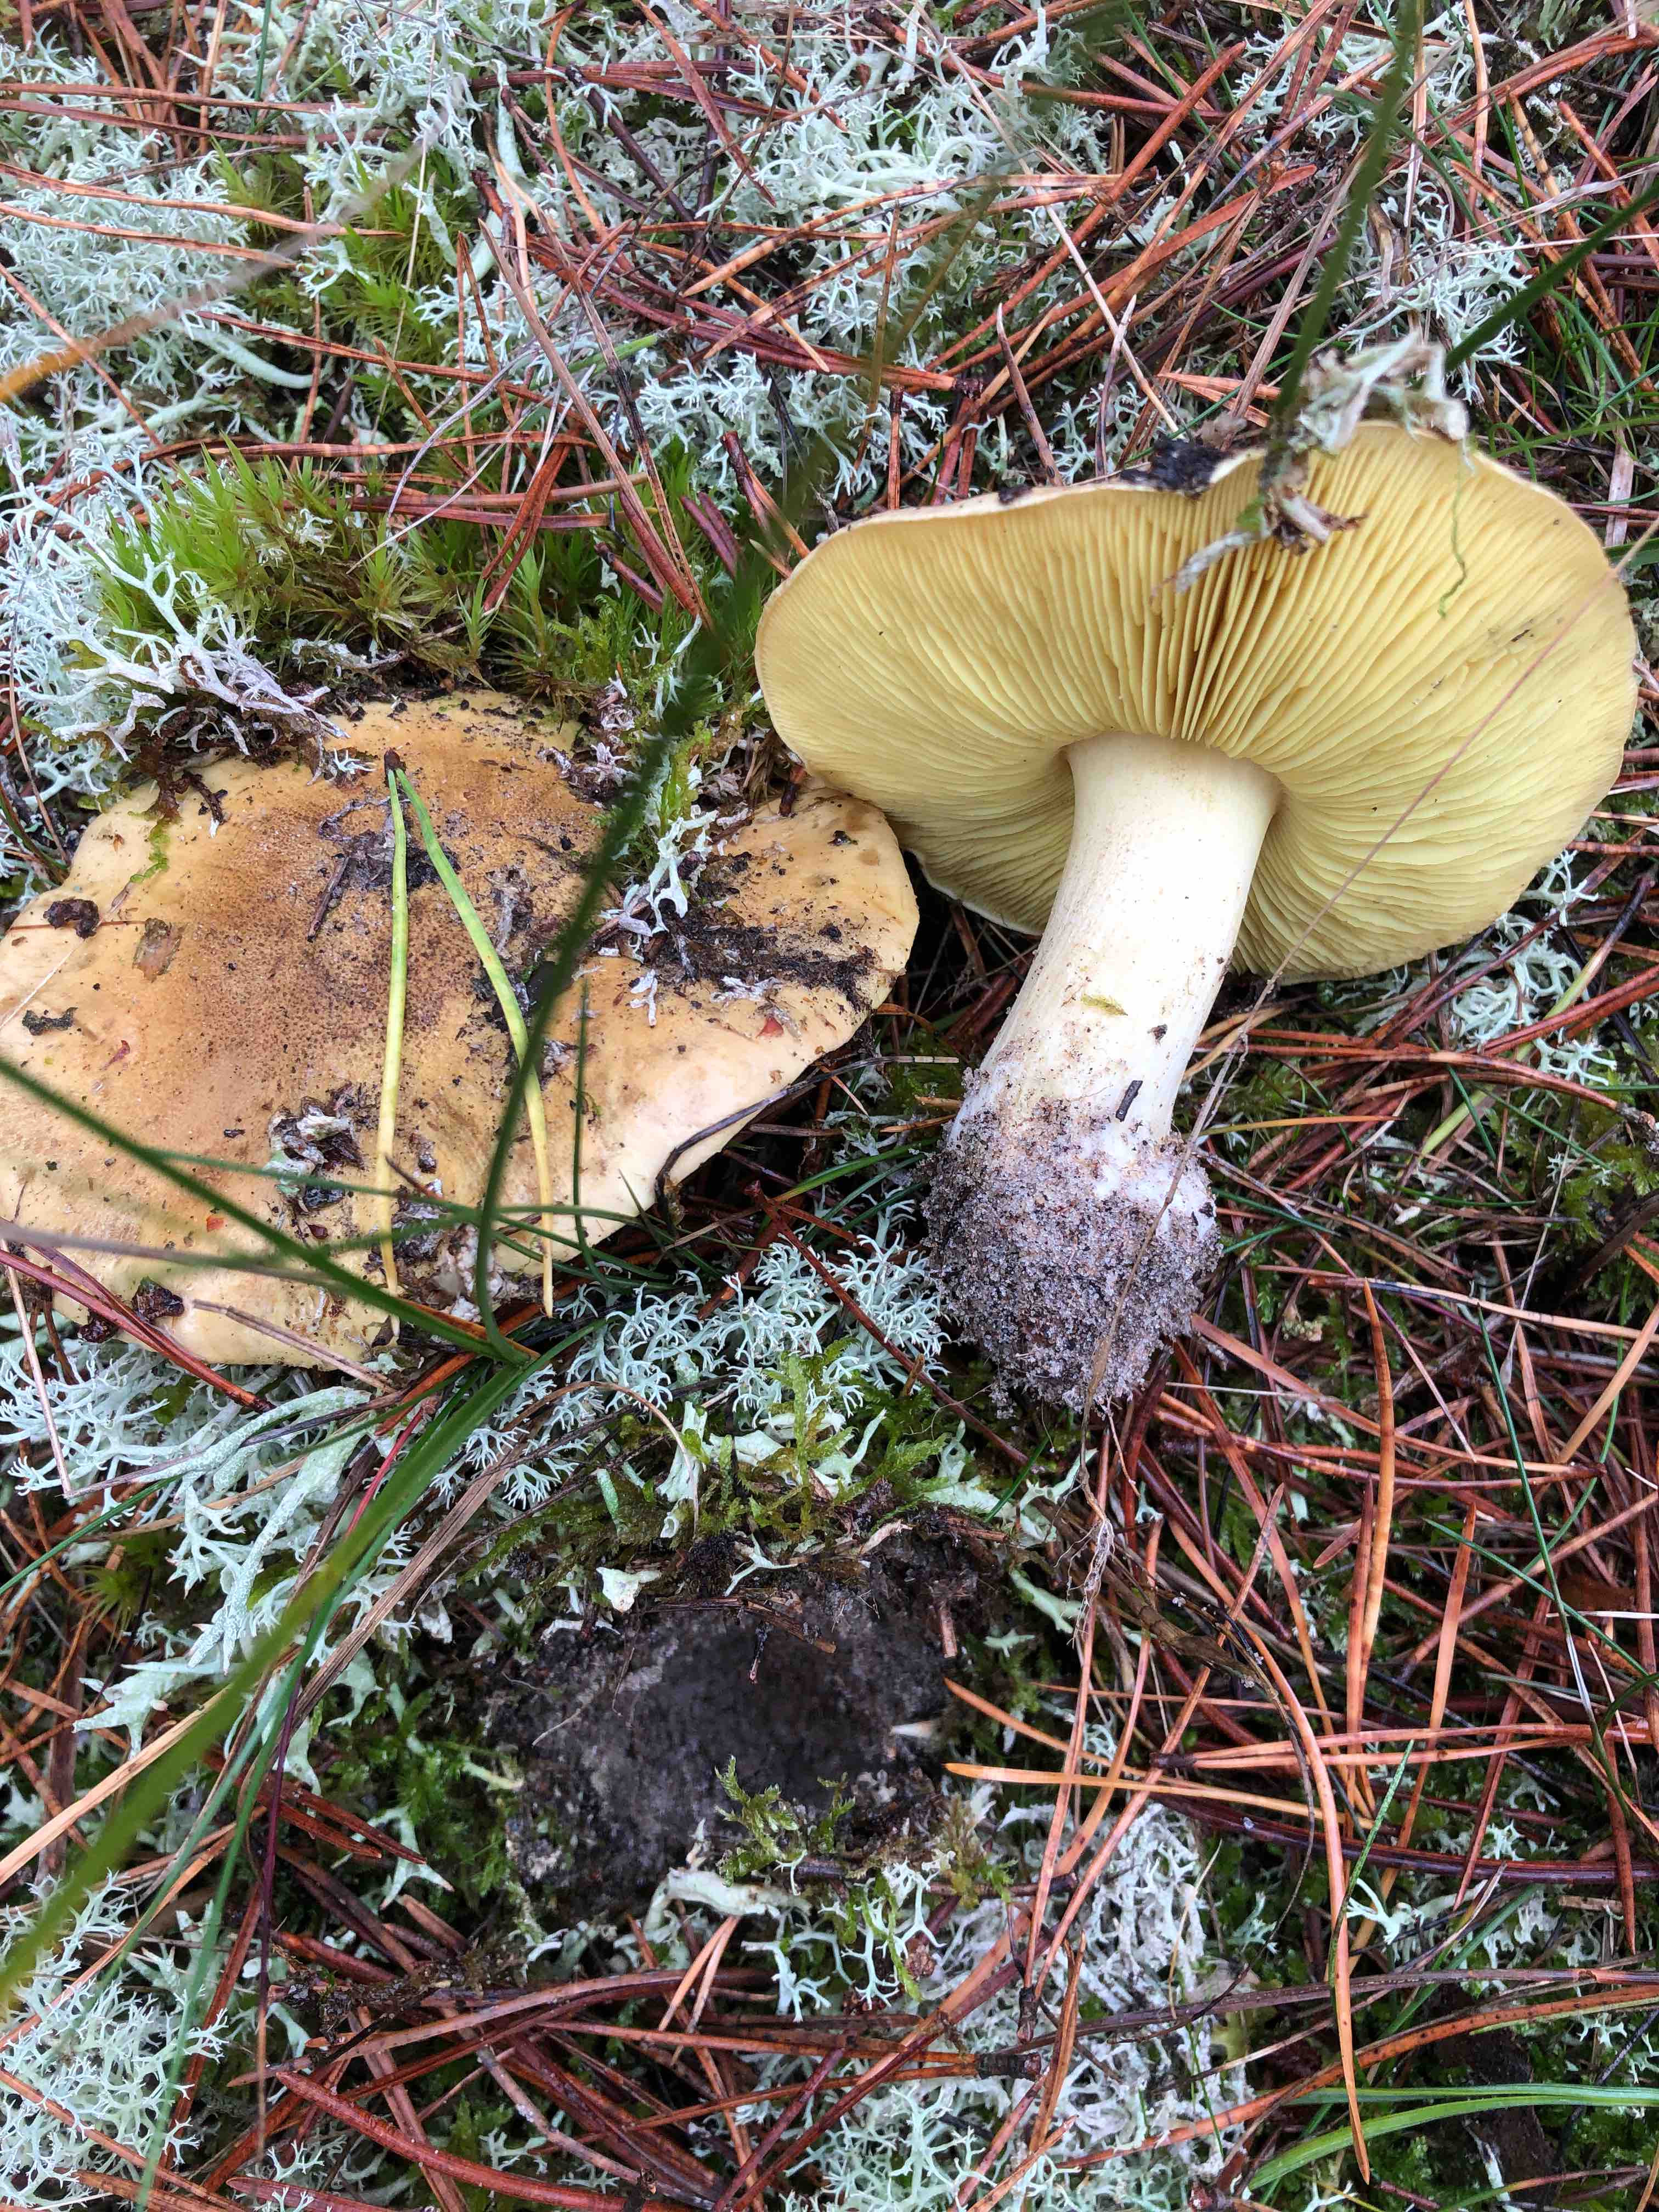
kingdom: Fungi
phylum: Basidiomycota
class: Agaricomycetes
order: Agaricales
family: Tricholomataceae
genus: Tricholoma
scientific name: Tricholoma equestre
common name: ægte ridderhat
